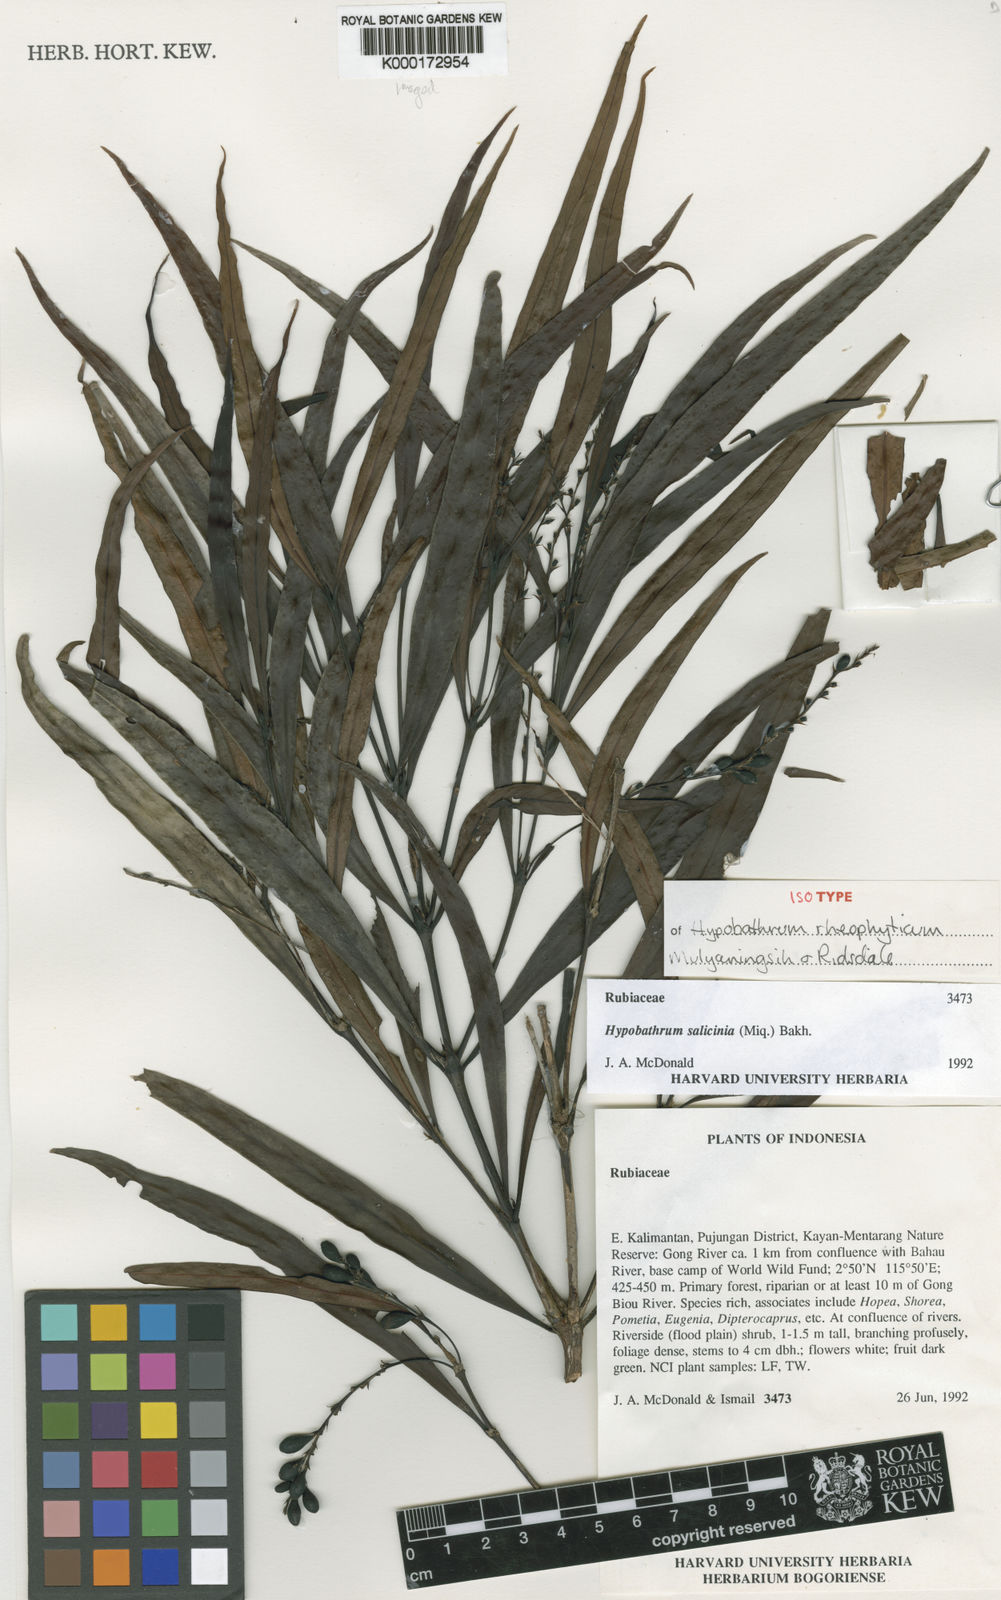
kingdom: Plantae
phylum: Tracheophyta
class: Magnoliopsida
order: Gentianales
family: Rubiaceae
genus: Hypobathrum
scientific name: Hypobathrum rheophyticum
